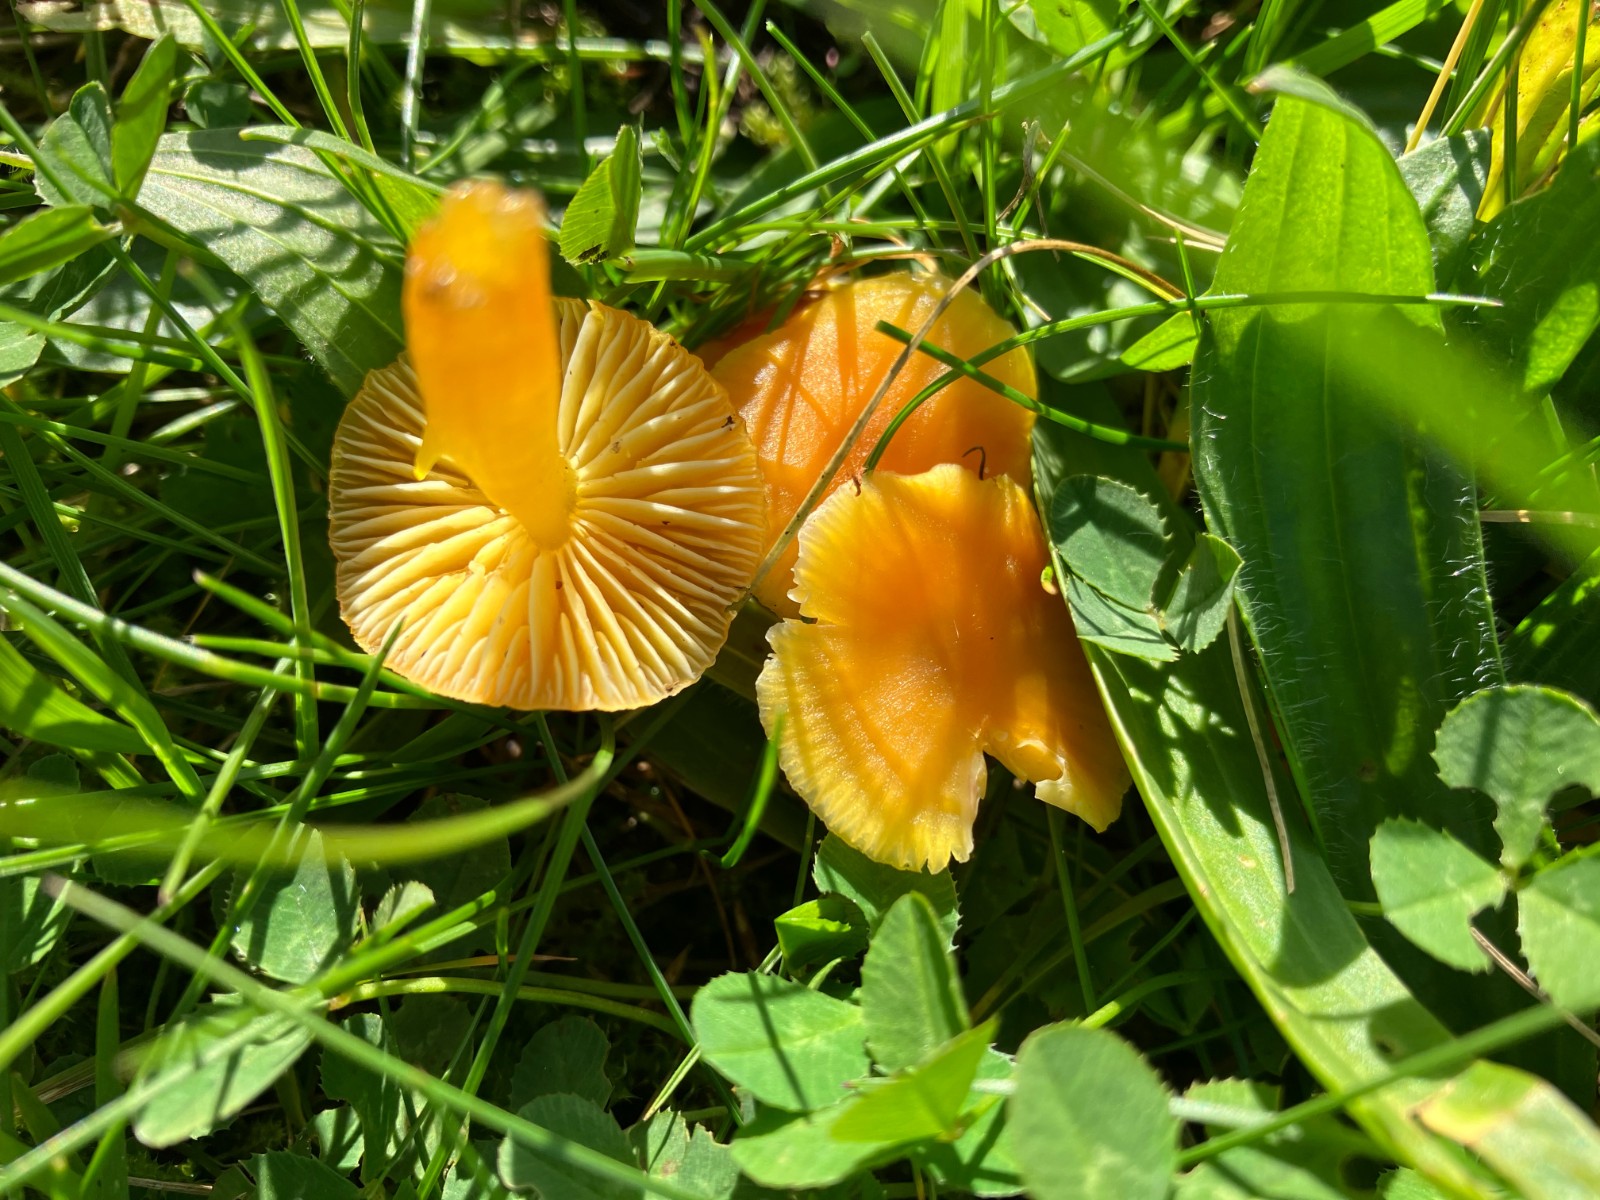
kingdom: Fungi
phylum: Basidiomycota
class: Agaricomycetes
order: Agaricales
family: Hygrophoraceae
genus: Hygrocybe
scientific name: Hygrocybe ceracea
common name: voksgul vokshat
